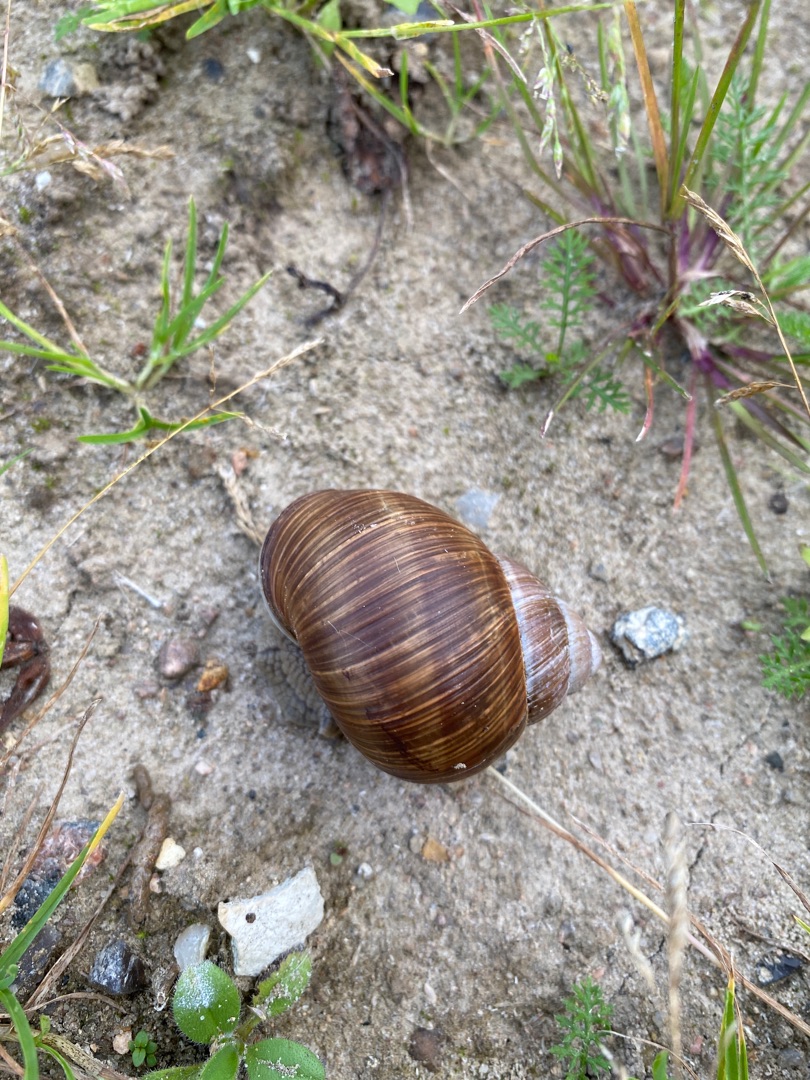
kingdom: Animalia
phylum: Mollusca
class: Gastropoda
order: Stylommatophora
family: Helicidae
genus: Helix
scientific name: Helix pomatia
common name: Vinbjergsnegl
